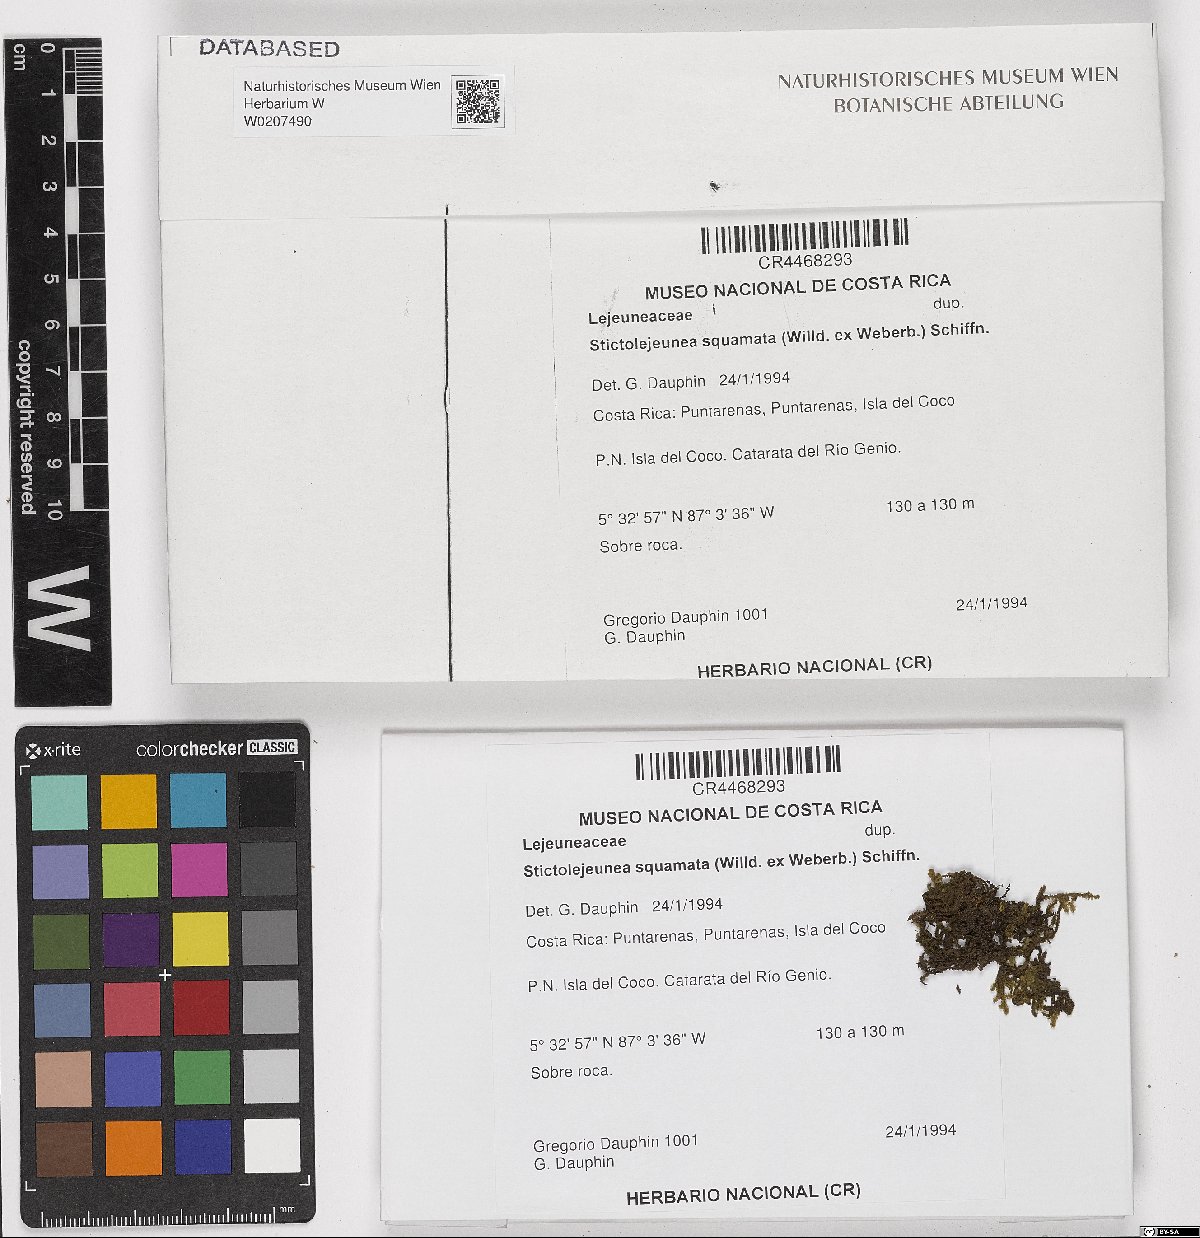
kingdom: Plantae
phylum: Marchantiophyta
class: Jungermanniopsida
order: Porellales
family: Lejeuneaceae
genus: Stictolejeunea
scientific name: Stictolejeunea squamata
